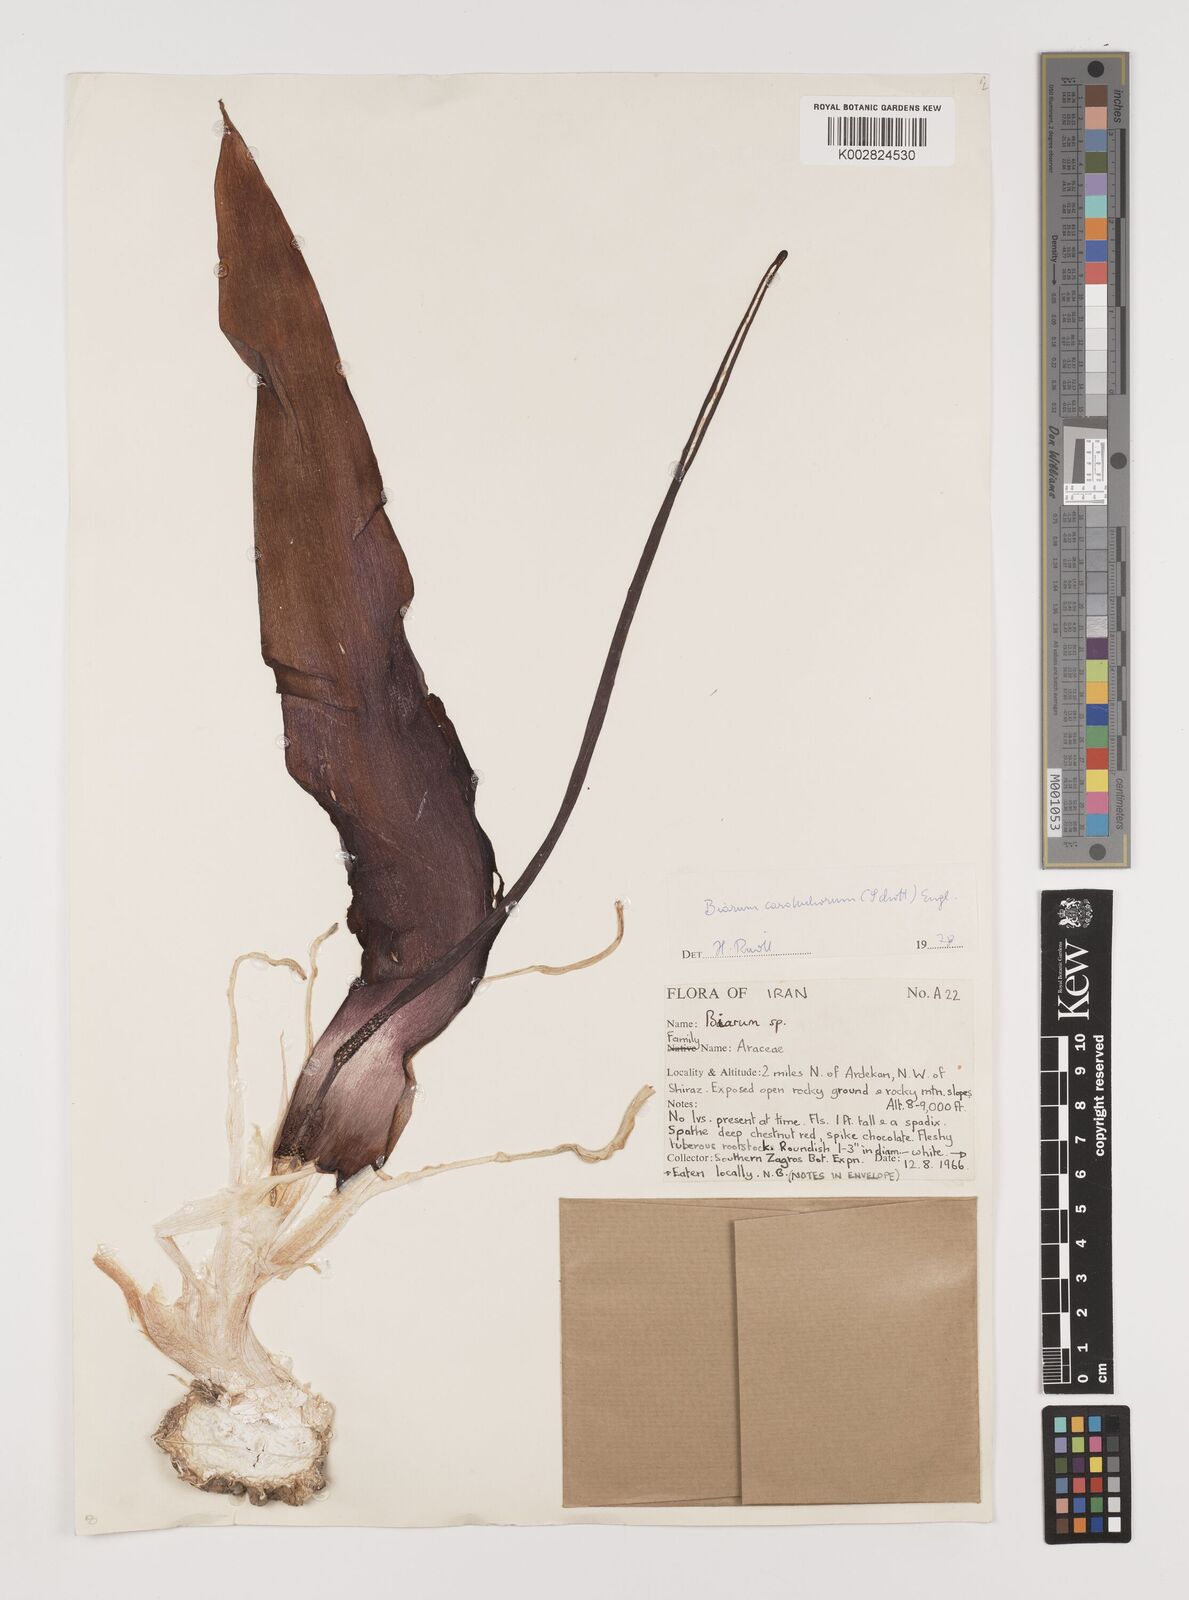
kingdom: Plantae
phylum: Tracheophyta
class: Liliopsida
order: Alismatales
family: Araceae
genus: Biarum
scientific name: Biarum carduchorum
